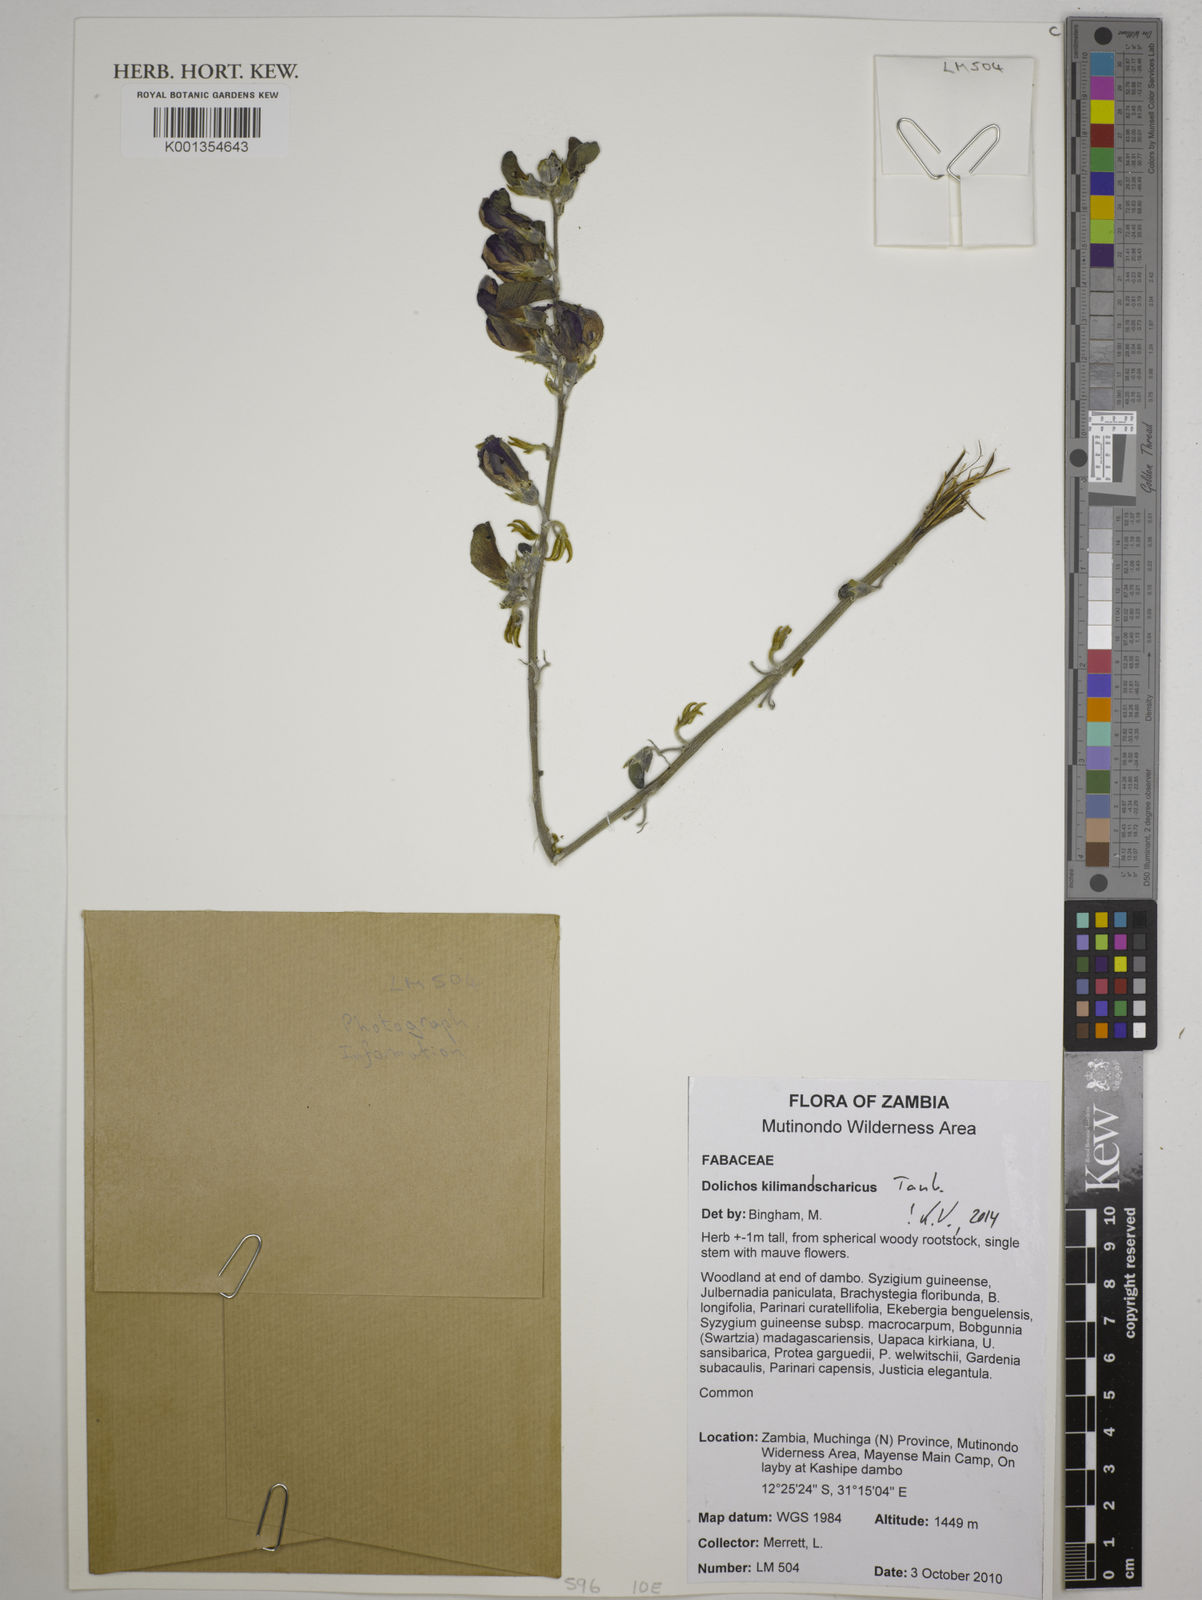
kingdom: Plantae
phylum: Tracheophyta
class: Magnoliopsida
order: Fabales
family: Fabaceae
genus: Dolichos
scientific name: Dolichos kilimandscharicus
